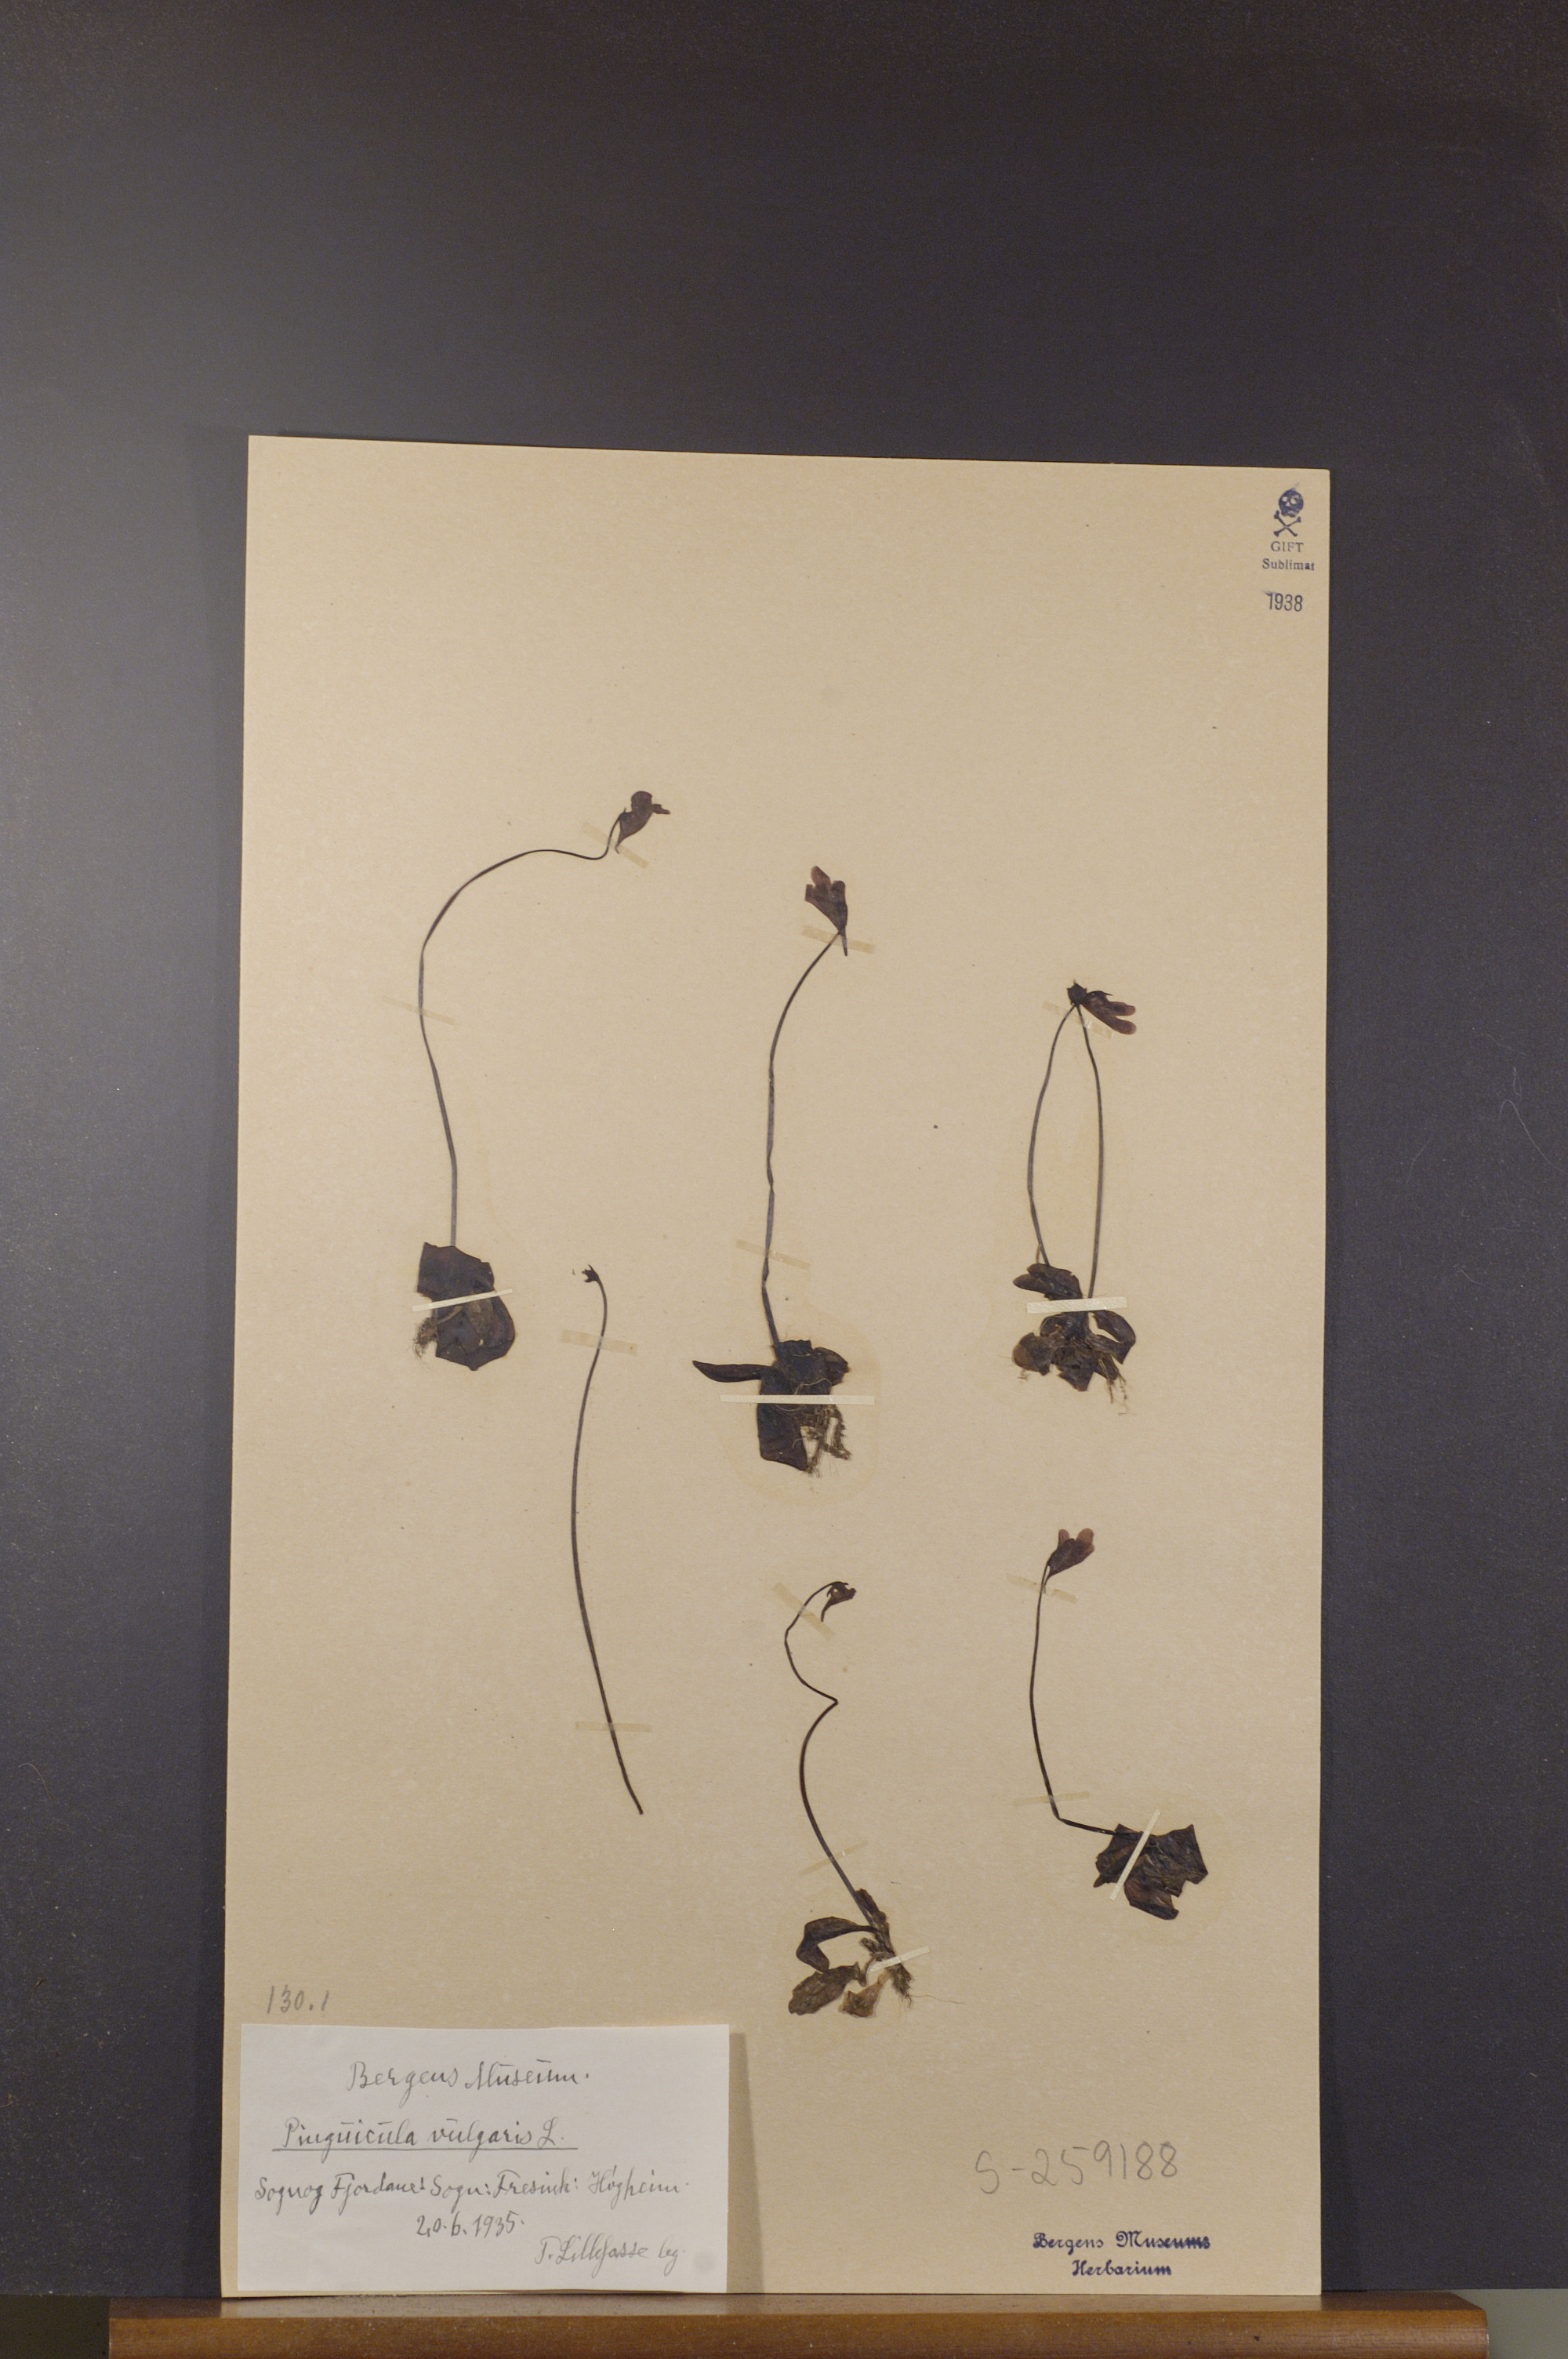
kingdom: Plantae
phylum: Tracheophyta
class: Magnoliopsida
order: Lamiales
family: Lentibulariaceae
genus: Pinguicula
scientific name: Pinguicula vulgaris
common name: Common butterwort
